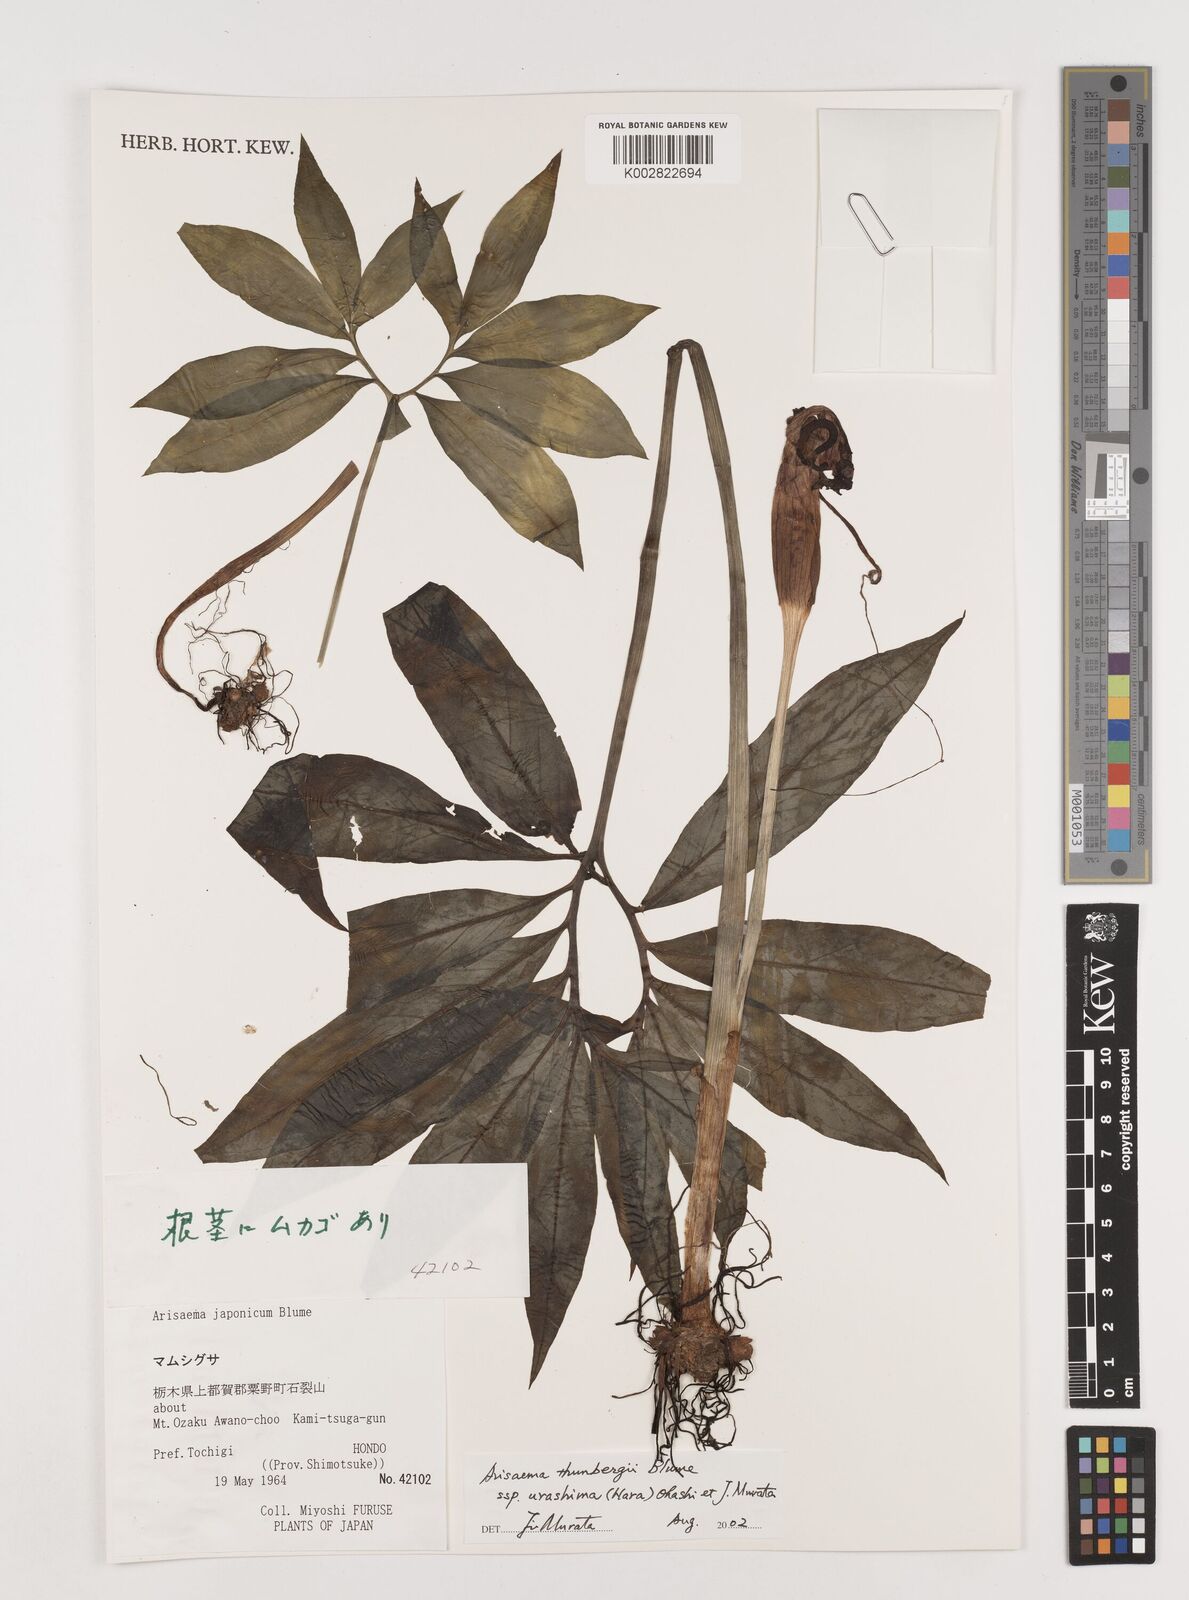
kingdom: Plantae
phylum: Tracheophyta
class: Liliopsida
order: Alismatales
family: Araceae
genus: Arisaema
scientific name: Arisaema thunbergii
